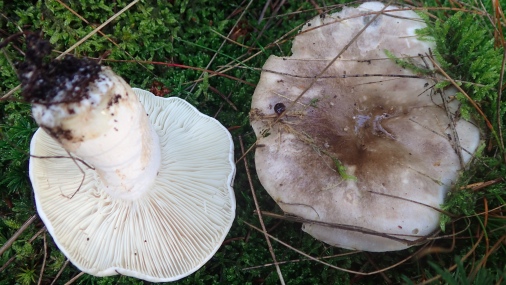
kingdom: Fungi
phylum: Basidiomycota
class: Agaricomycetes
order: Russulales
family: Russulaceae
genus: Russula
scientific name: Russula adusta
